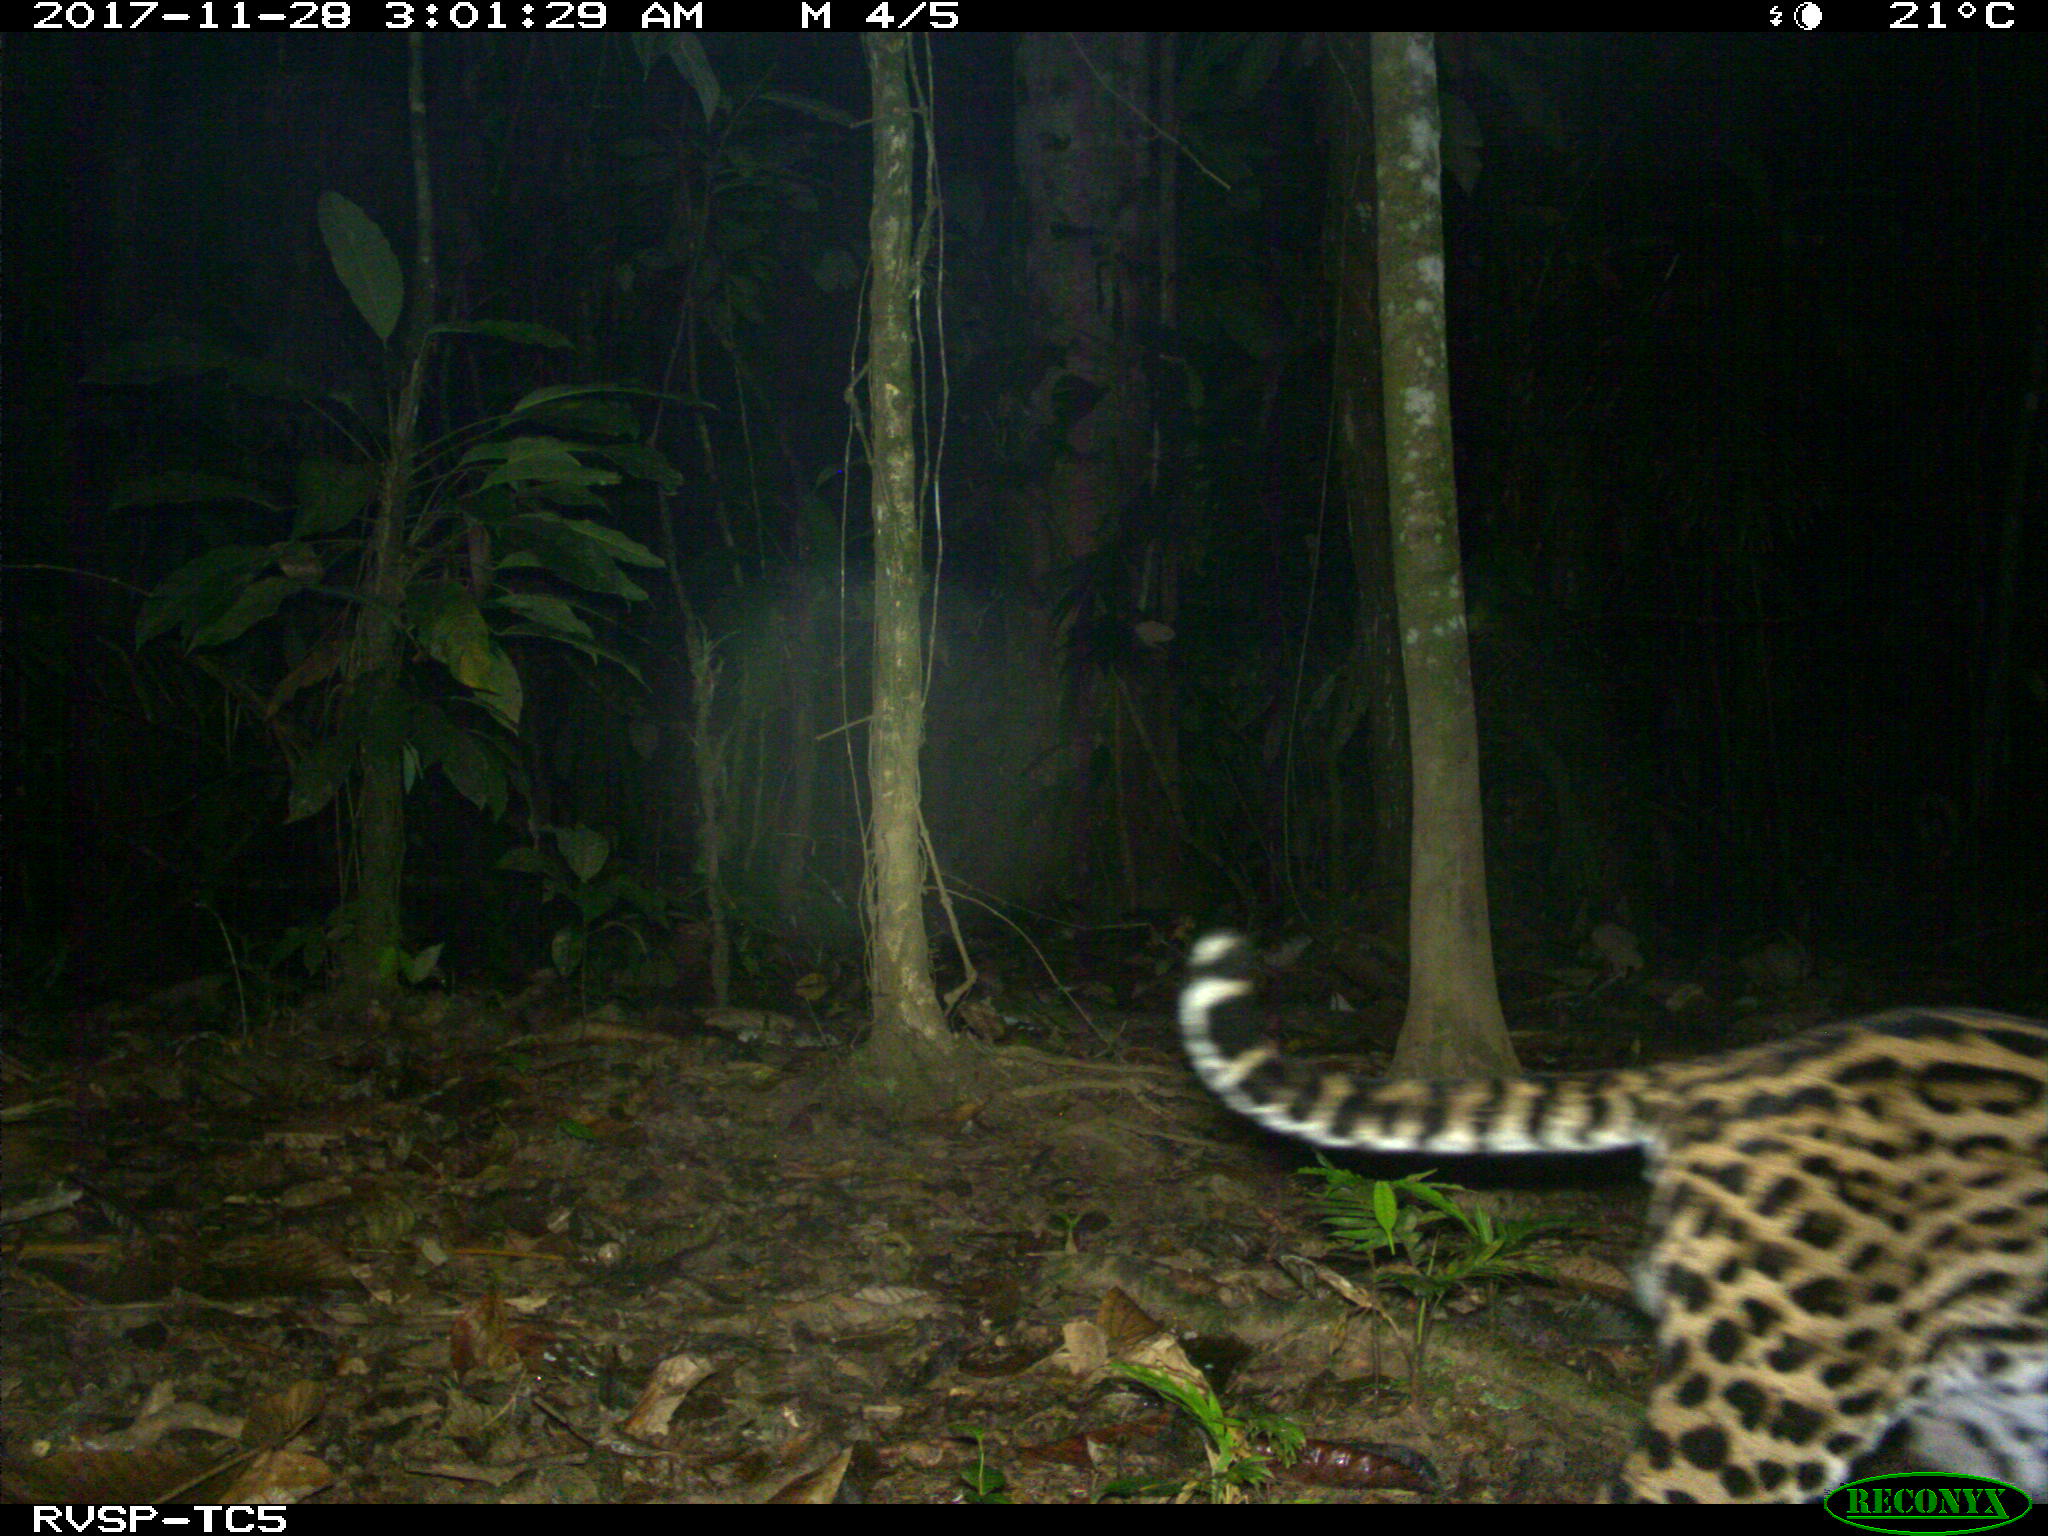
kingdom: Animalia
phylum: Chordata
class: Mammalia
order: Carnivora
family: Felidae
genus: Leopardus
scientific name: Leopardus pardalis
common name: Ocelot
